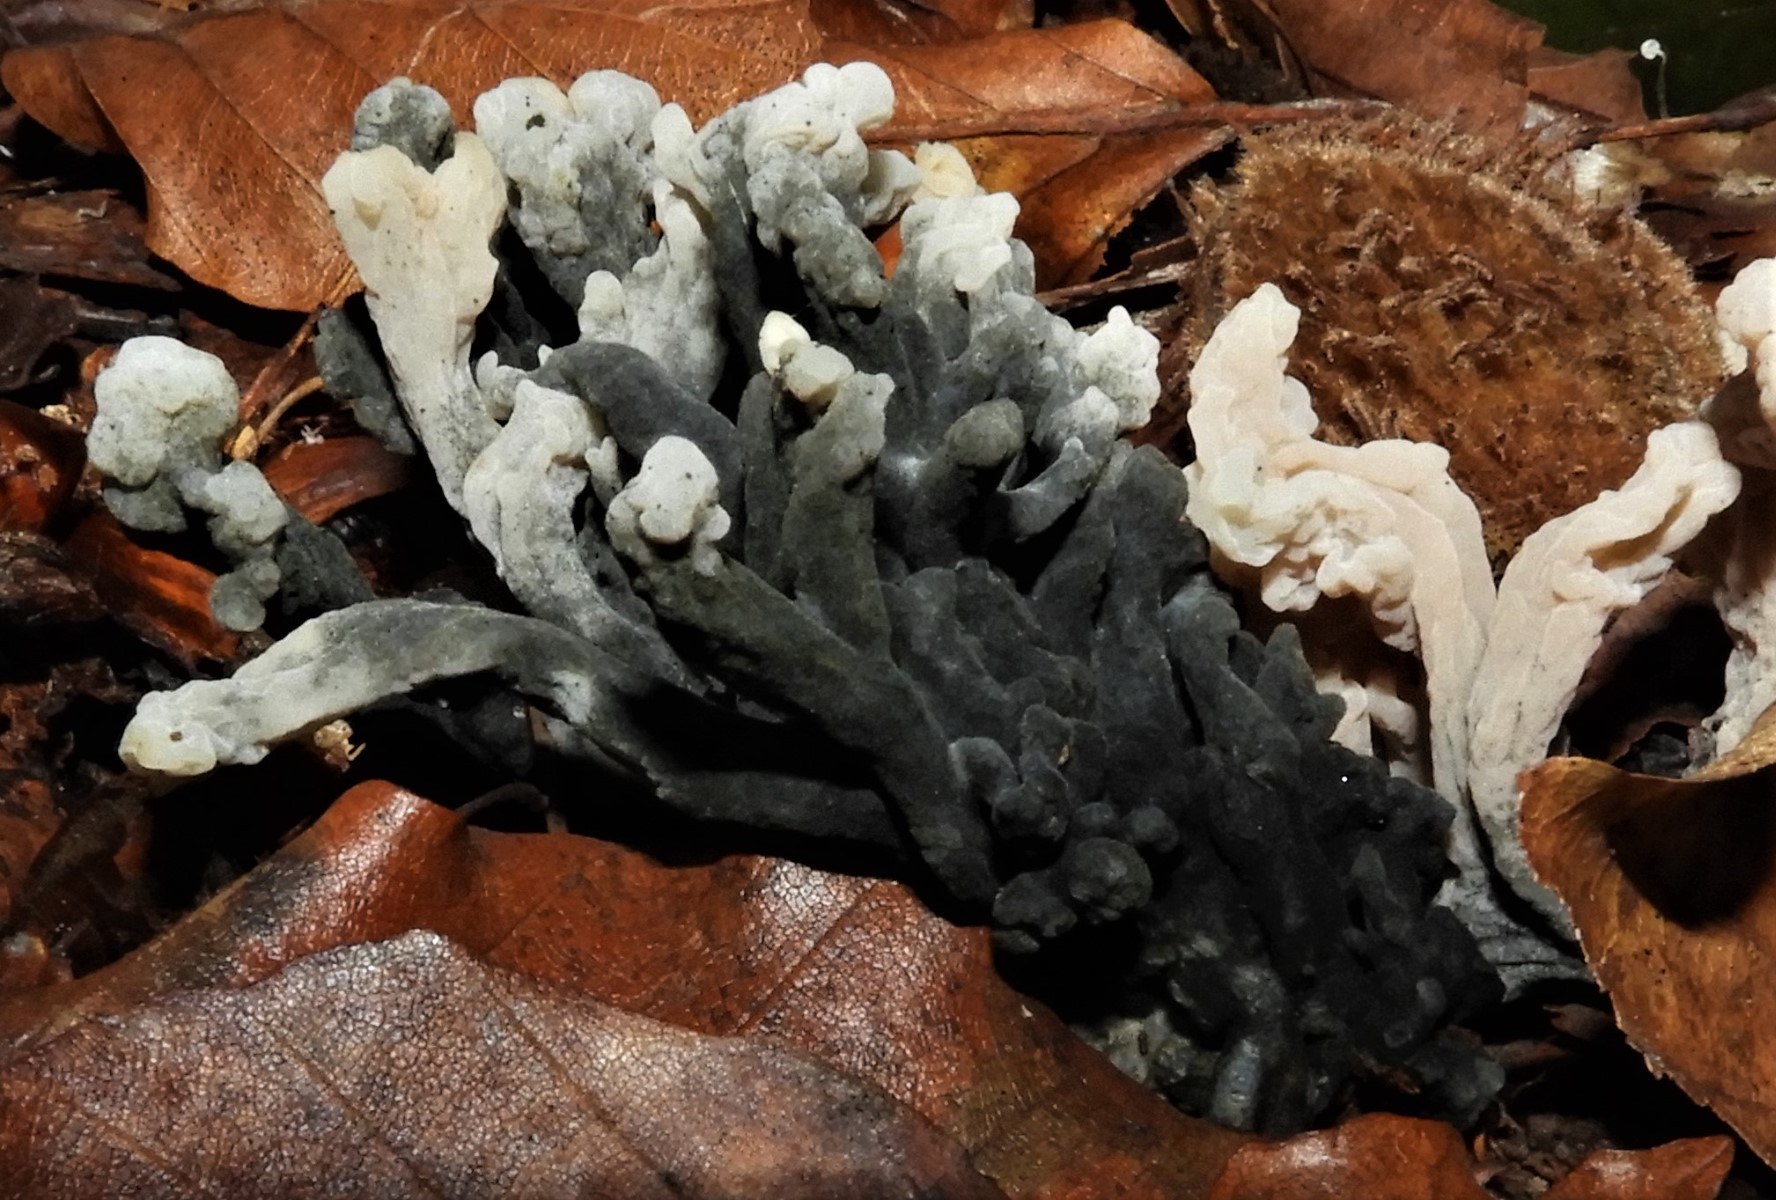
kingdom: Fungi
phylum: Ascomycota
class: Sordariomycetes
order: Sordariales
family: Helminthosphaeriaceae
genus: Helminthosphaeria
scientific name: Helminthosphaeria clavariarum
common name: trold-svampesnyltekerne
